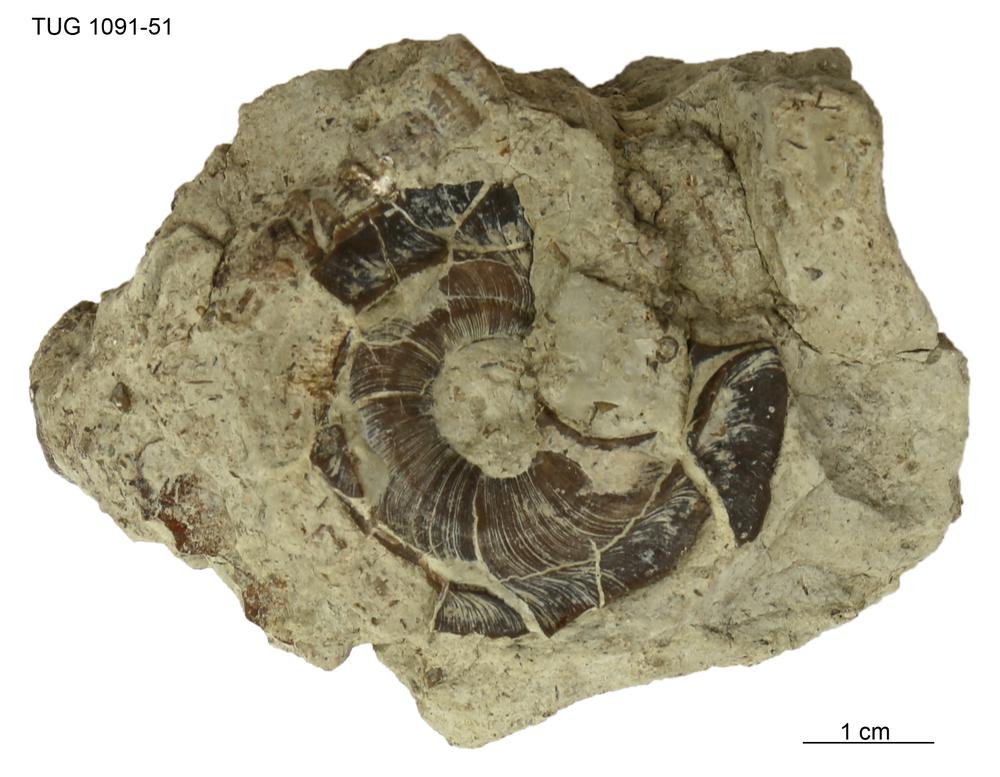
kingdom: Animalia
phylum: Mollusca
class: Gastropoda
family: Euomphalidae
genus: Euomphalopterus
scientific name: Euomphalopterus alatus
